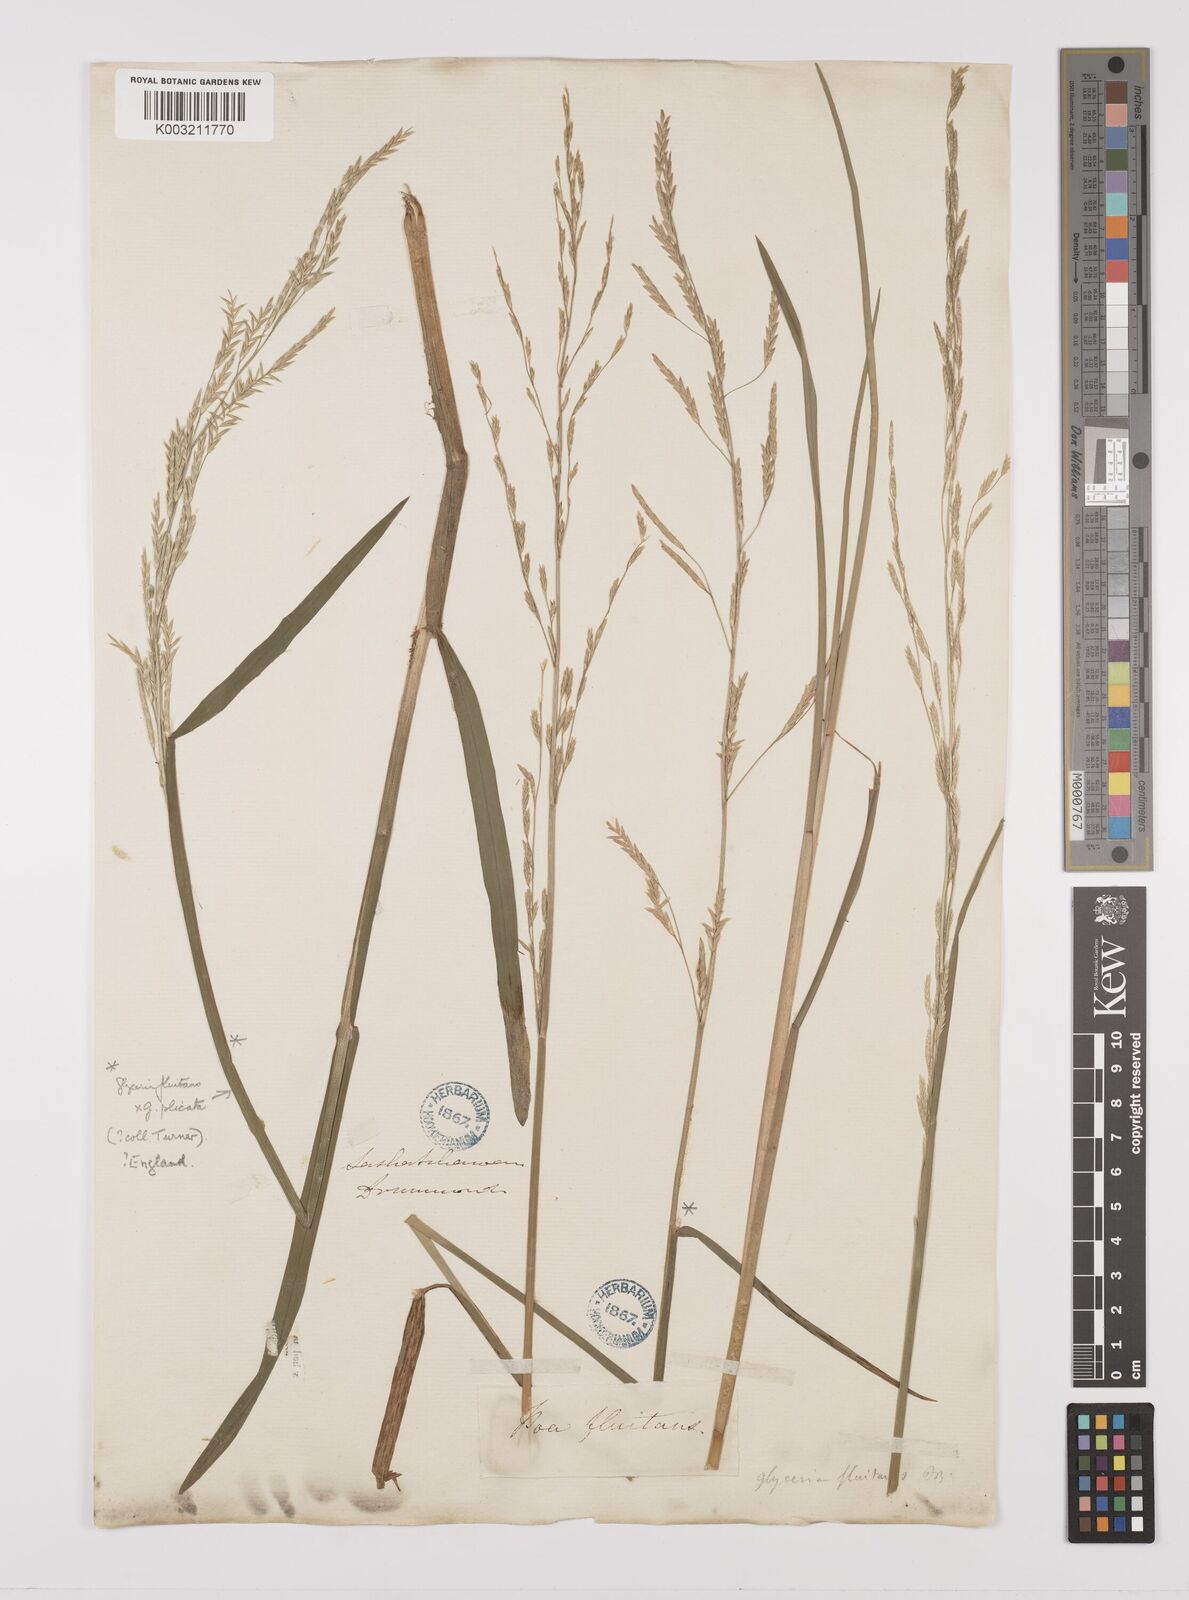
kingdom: Plantae
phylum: Tracheophyta
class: Liliopsida
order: Poales
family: Poaceae
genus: Glyceria
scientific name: Glyceria borealis
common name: Boreal glyceria
